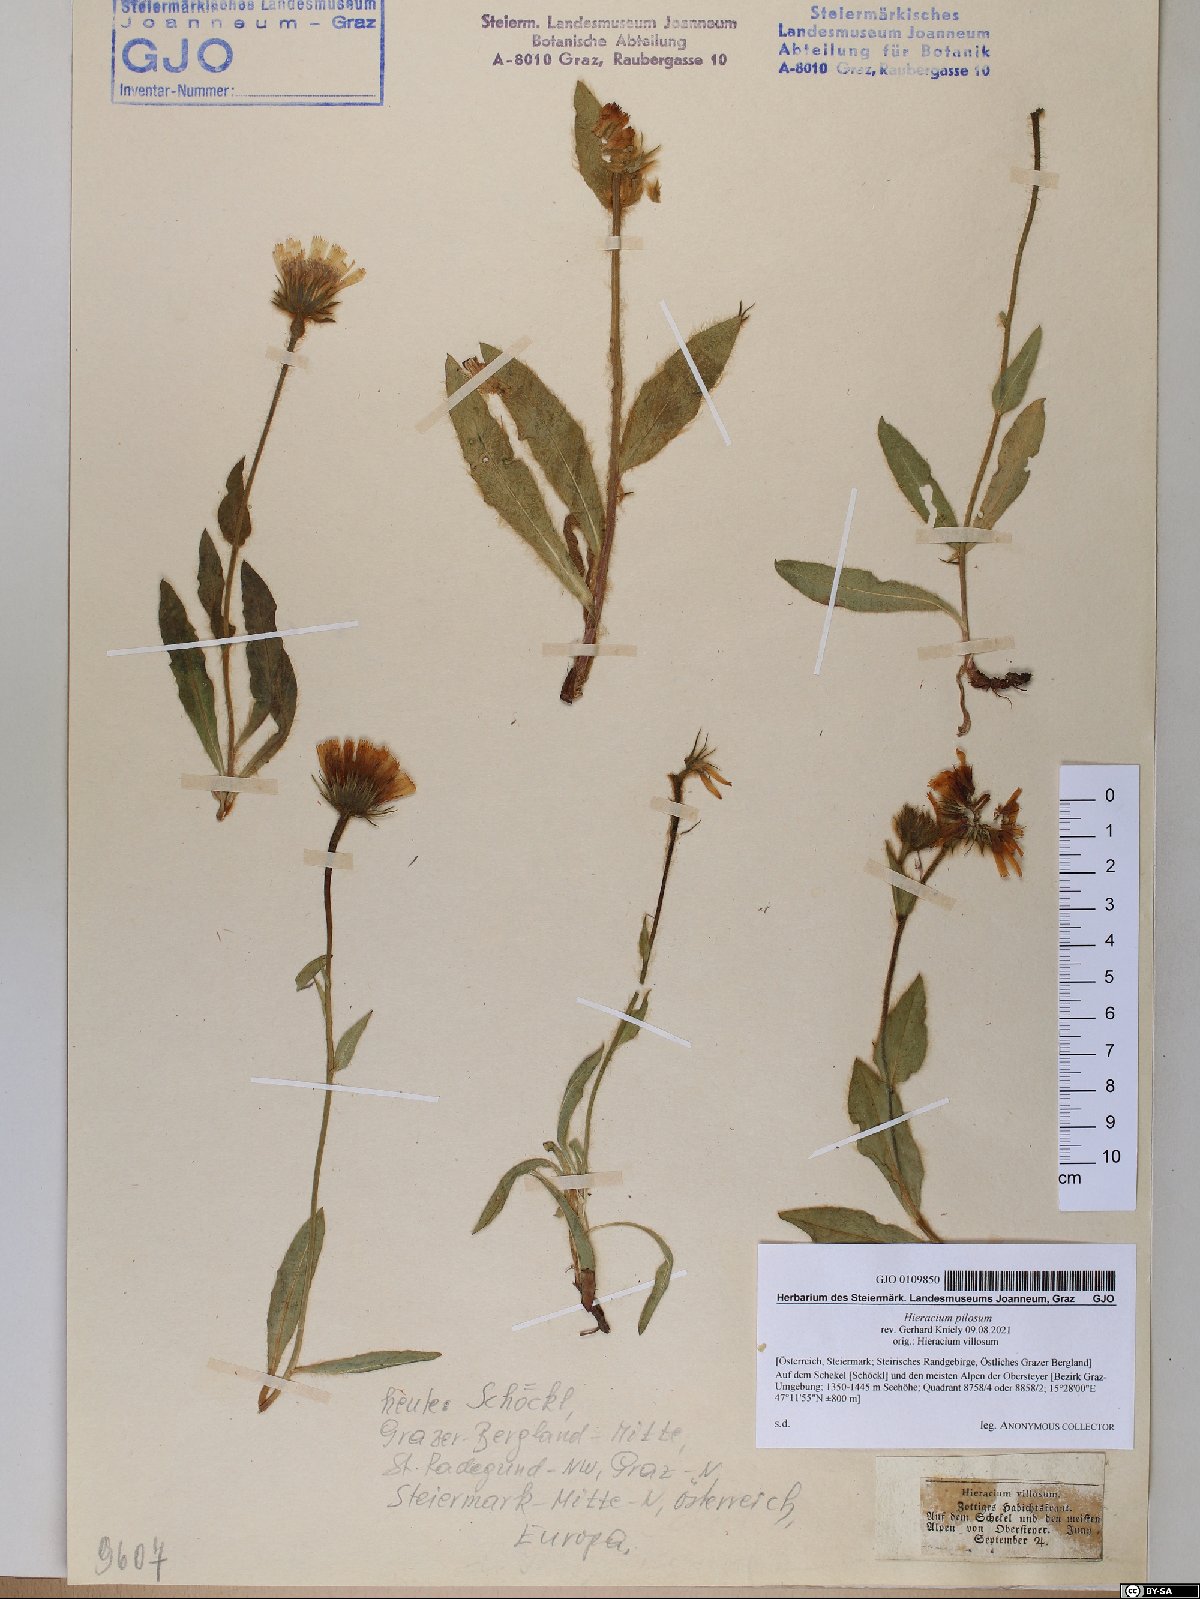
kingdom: Plantae
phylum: Tracheophyta
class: Magnoliopsida
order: Asterales
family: Asteraceae
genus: Hieracium
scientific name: Hieracium pilosum
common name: Fimbriate-pitted hawkweed
